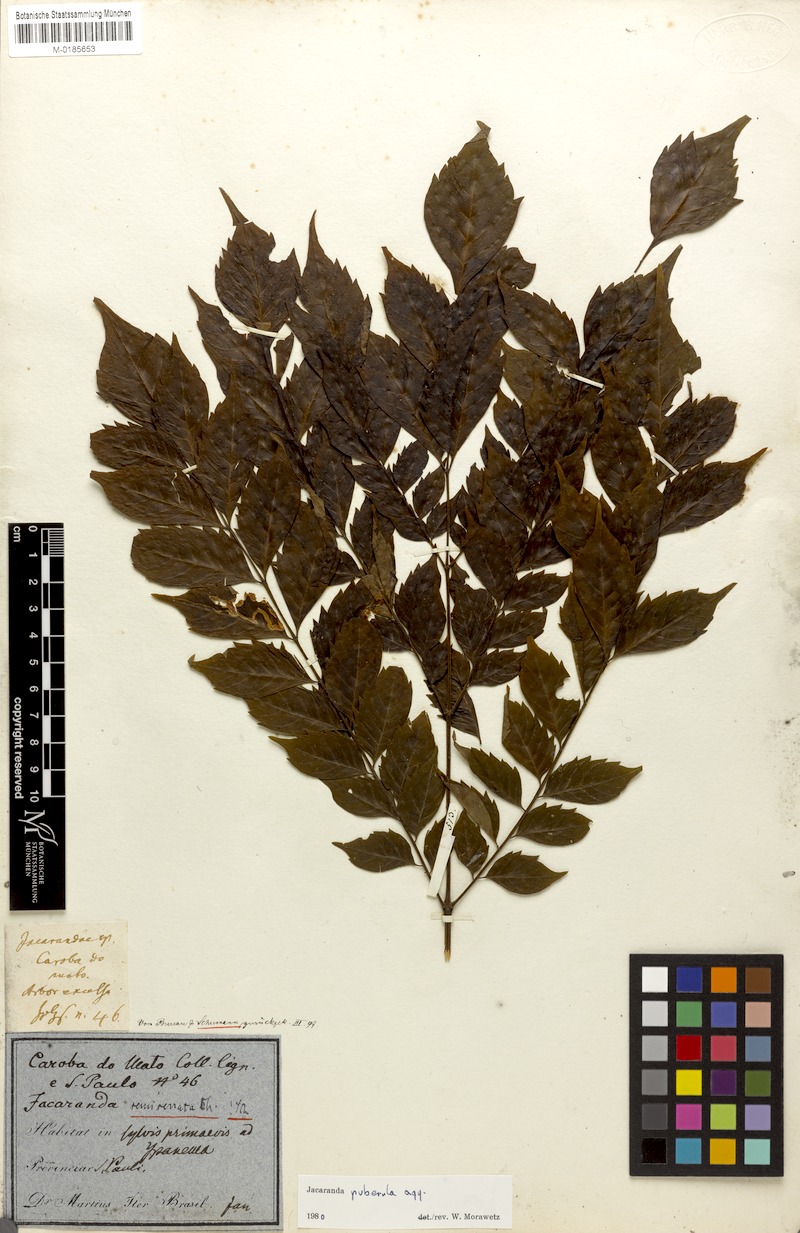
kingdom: Plantae
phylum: Tracheophyta
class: Magnoliopsida
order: Lamiales
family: Bignoniaceae
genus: Jacaranda
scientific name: Jacaranda puberula
